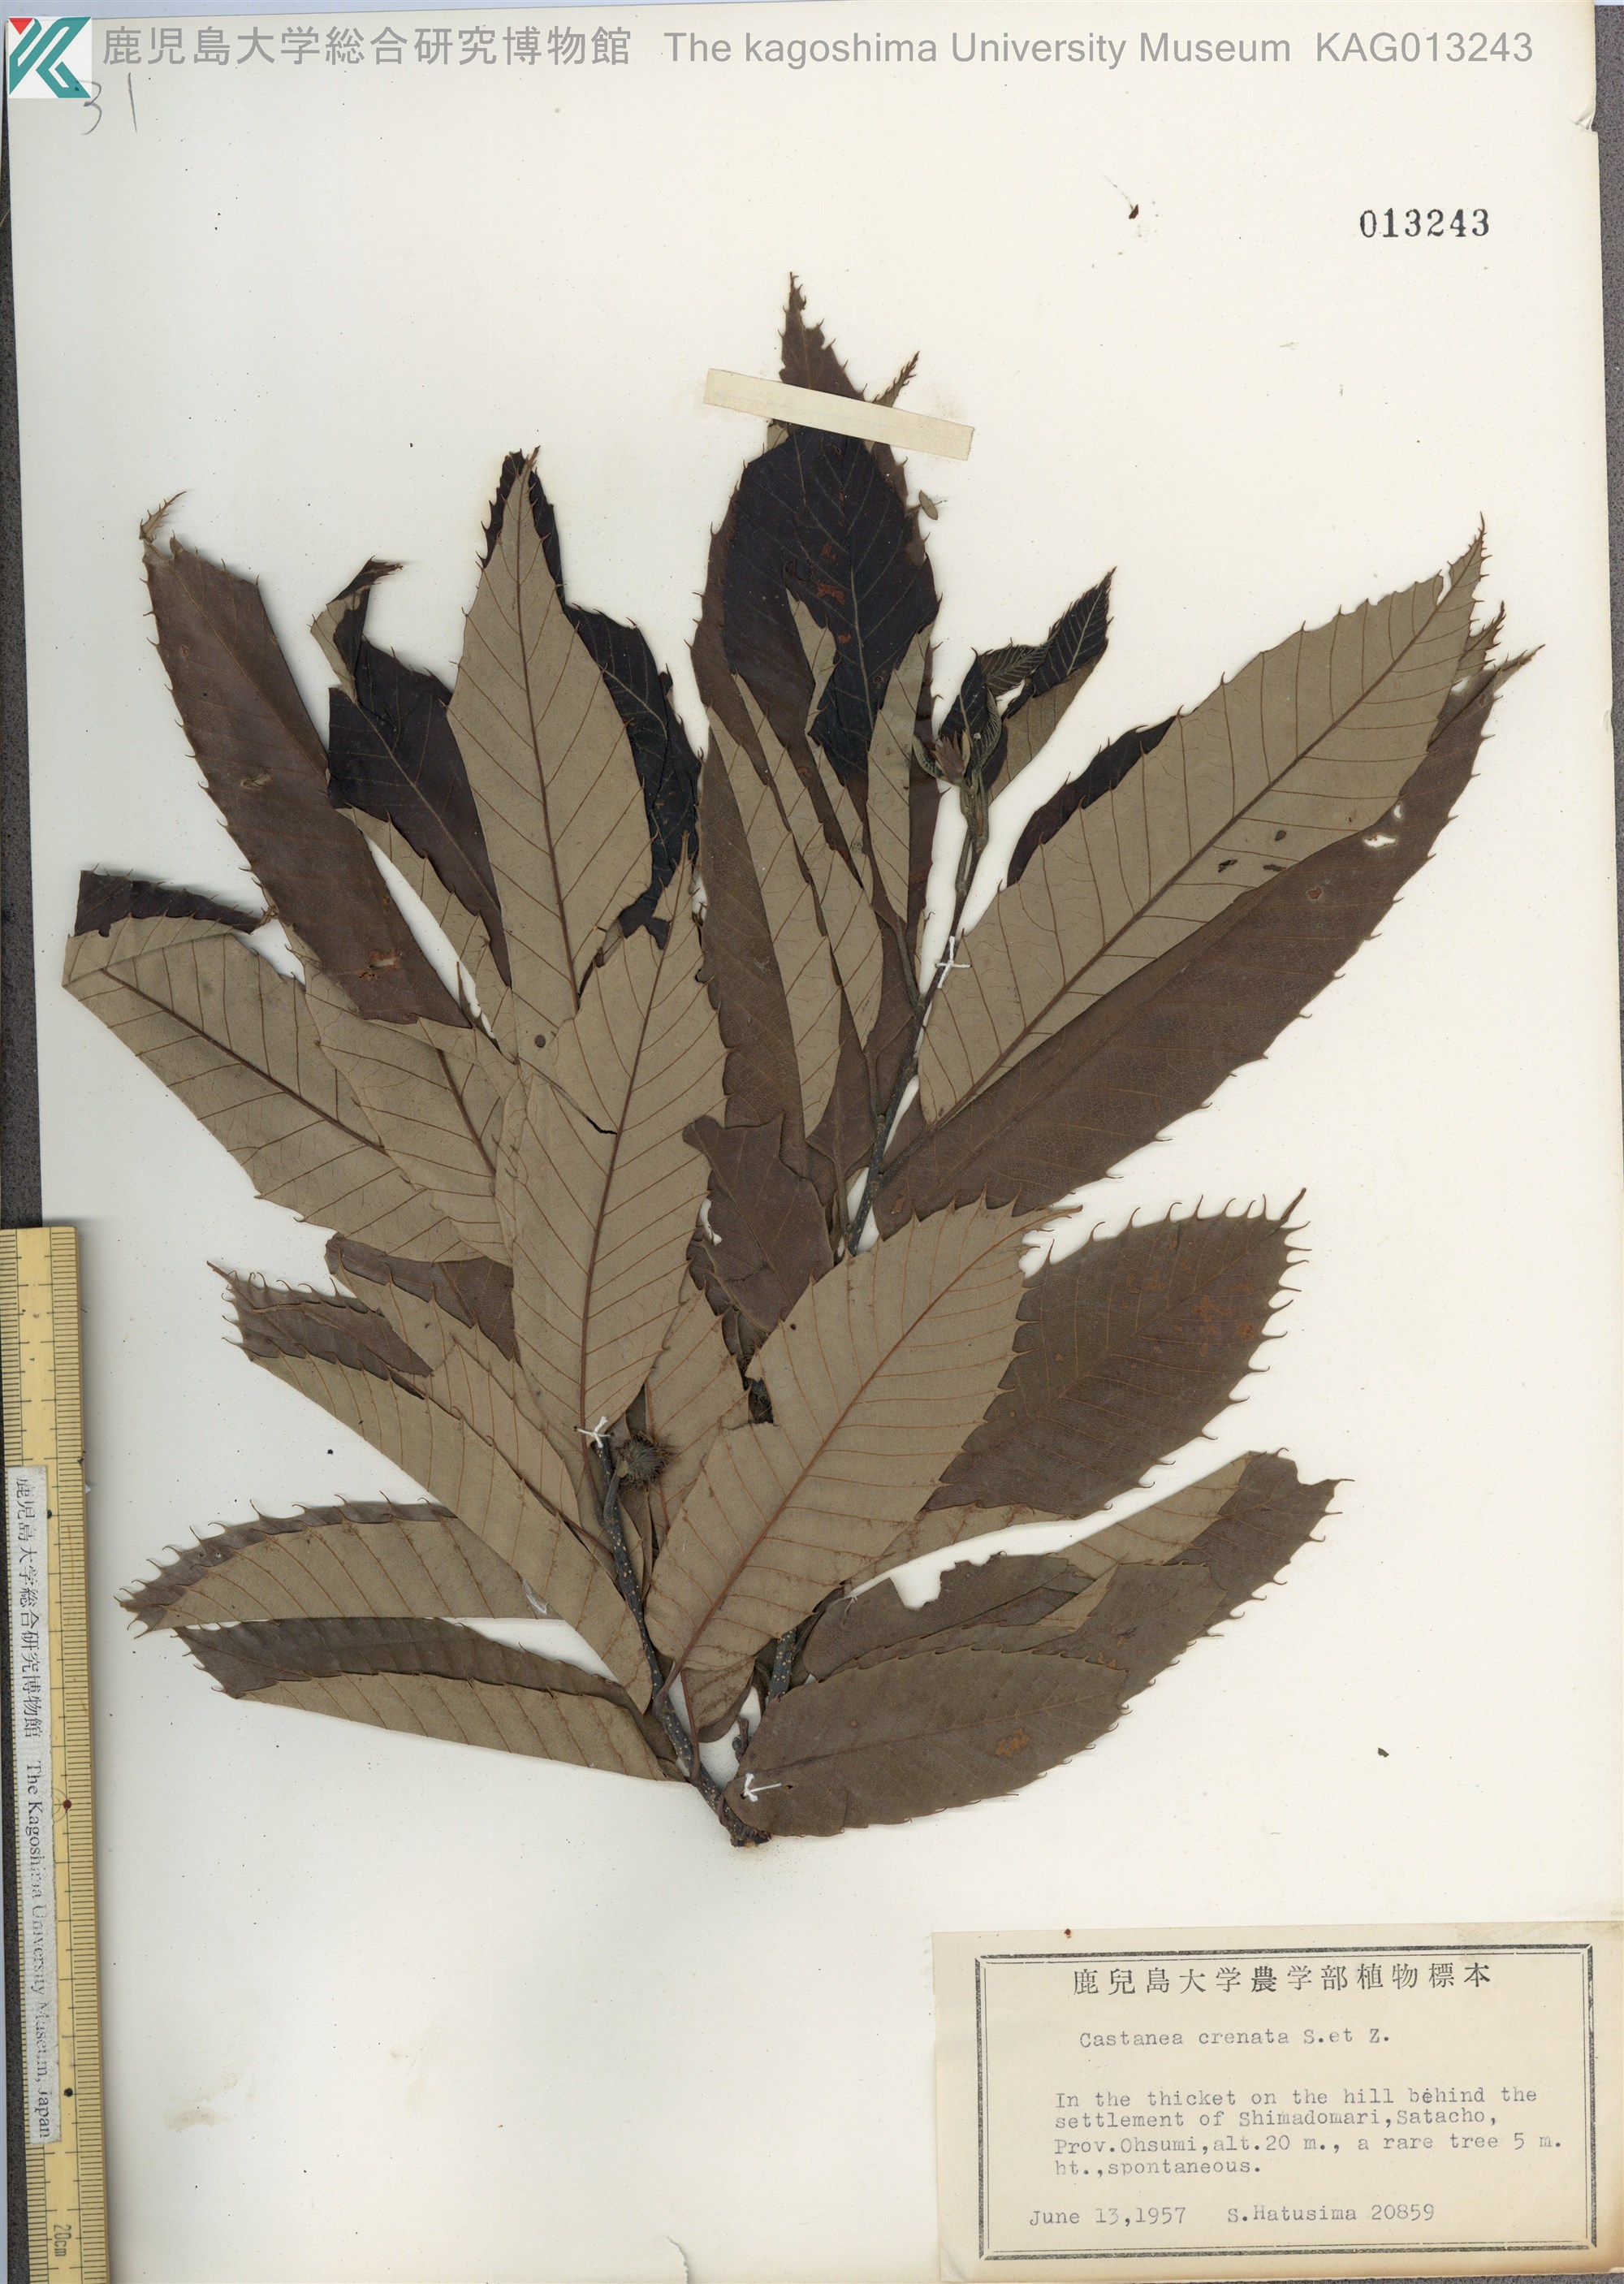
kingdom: Plantae
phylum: Tracheophyta
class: Magnoliopsida
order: Fagales
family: Fagaceae
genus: Castanea
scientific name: Castanea crenata
